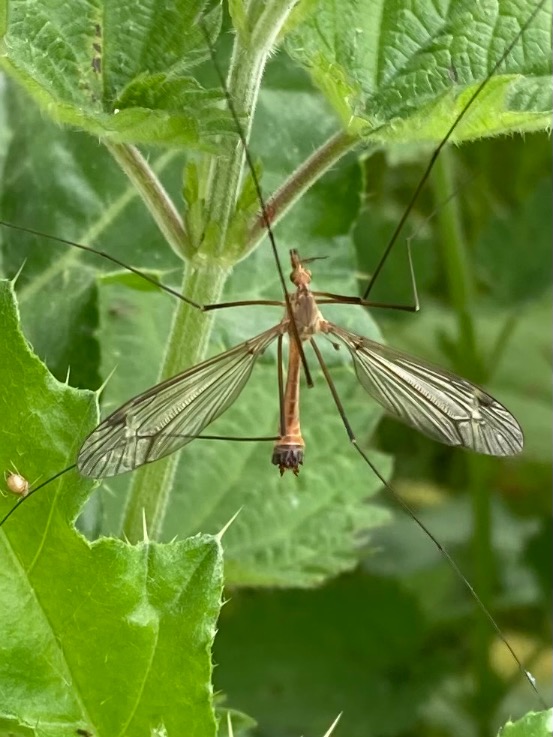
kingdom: Animalia
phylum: Arthropoda
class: Insecta
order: Diptera
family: Tipulidae
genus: Tipula
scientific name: Tipula fascipennis
